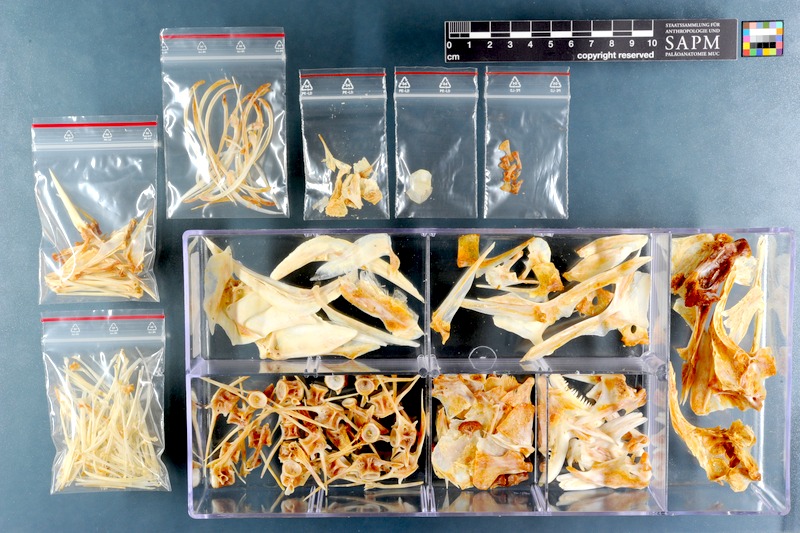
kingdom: Animalia
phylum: Chordata
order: Perciformes
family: Sparidae
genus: Petrus
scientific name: Petrus rupestris
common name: Red steenbras
